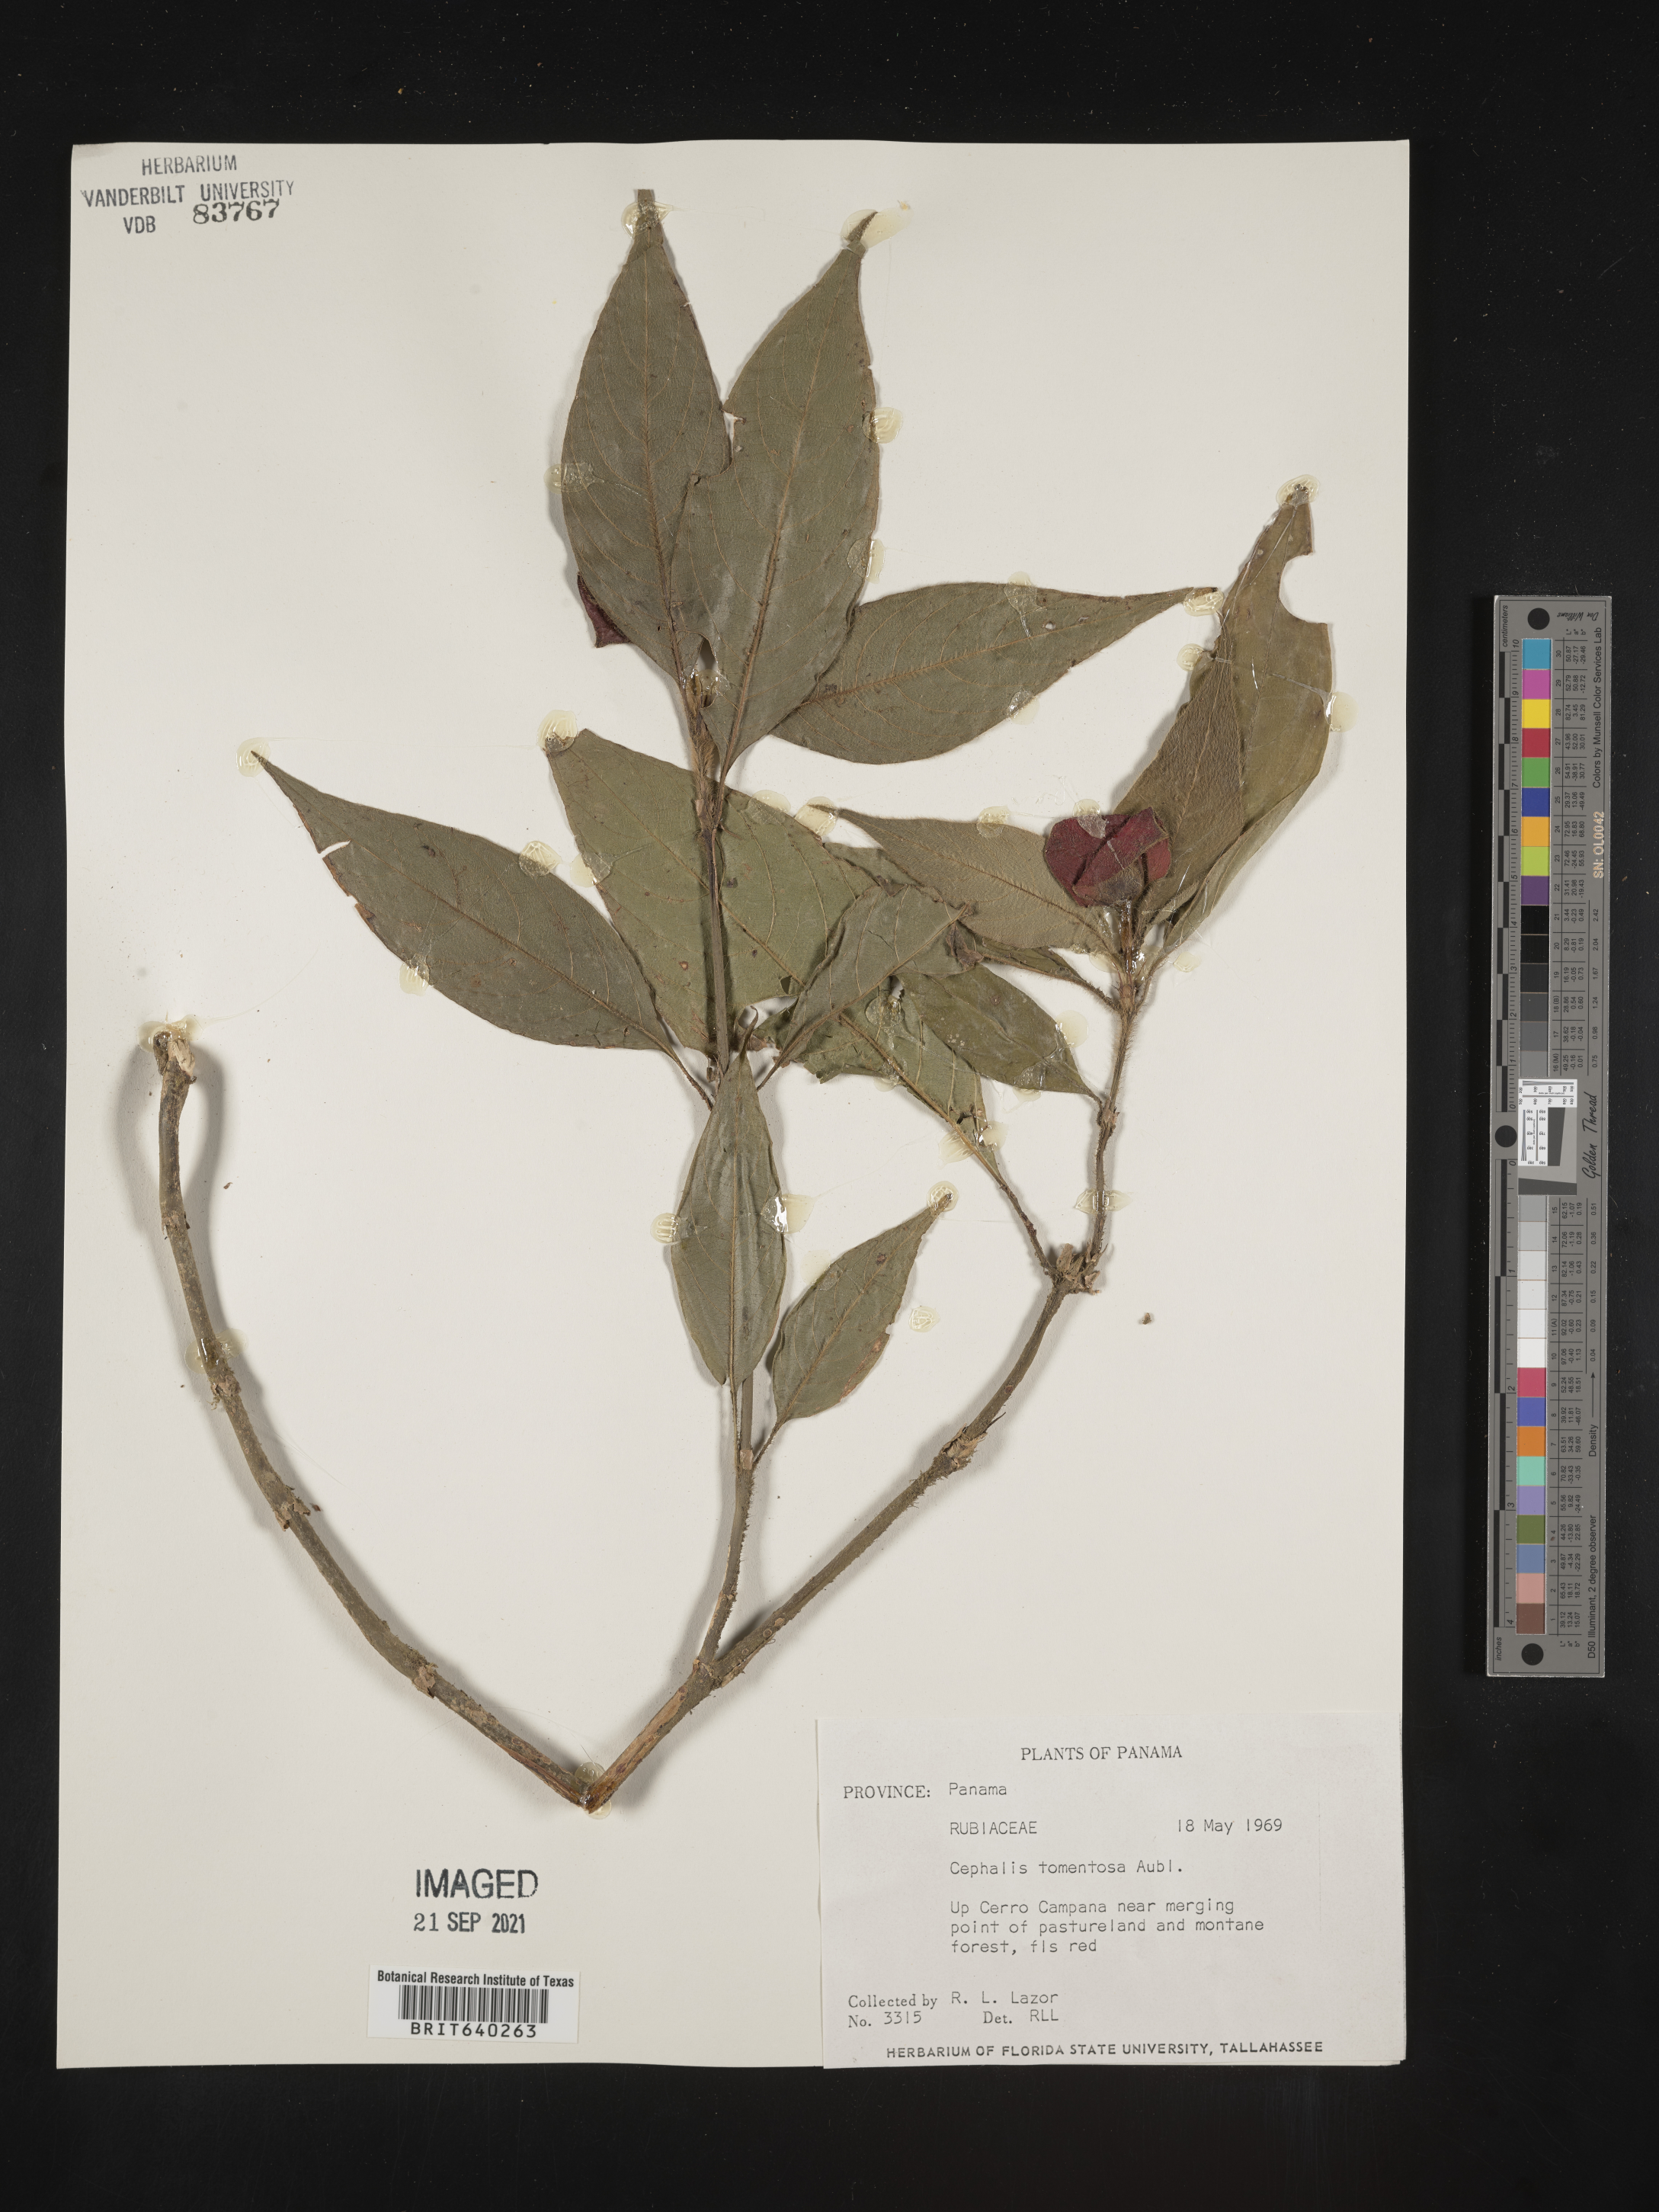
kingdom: Plantae
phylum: Tracheophyta
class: Magnoliopsida
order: Gentianales
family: Rubiaceae
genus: Psychotria
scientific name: Psychotria
